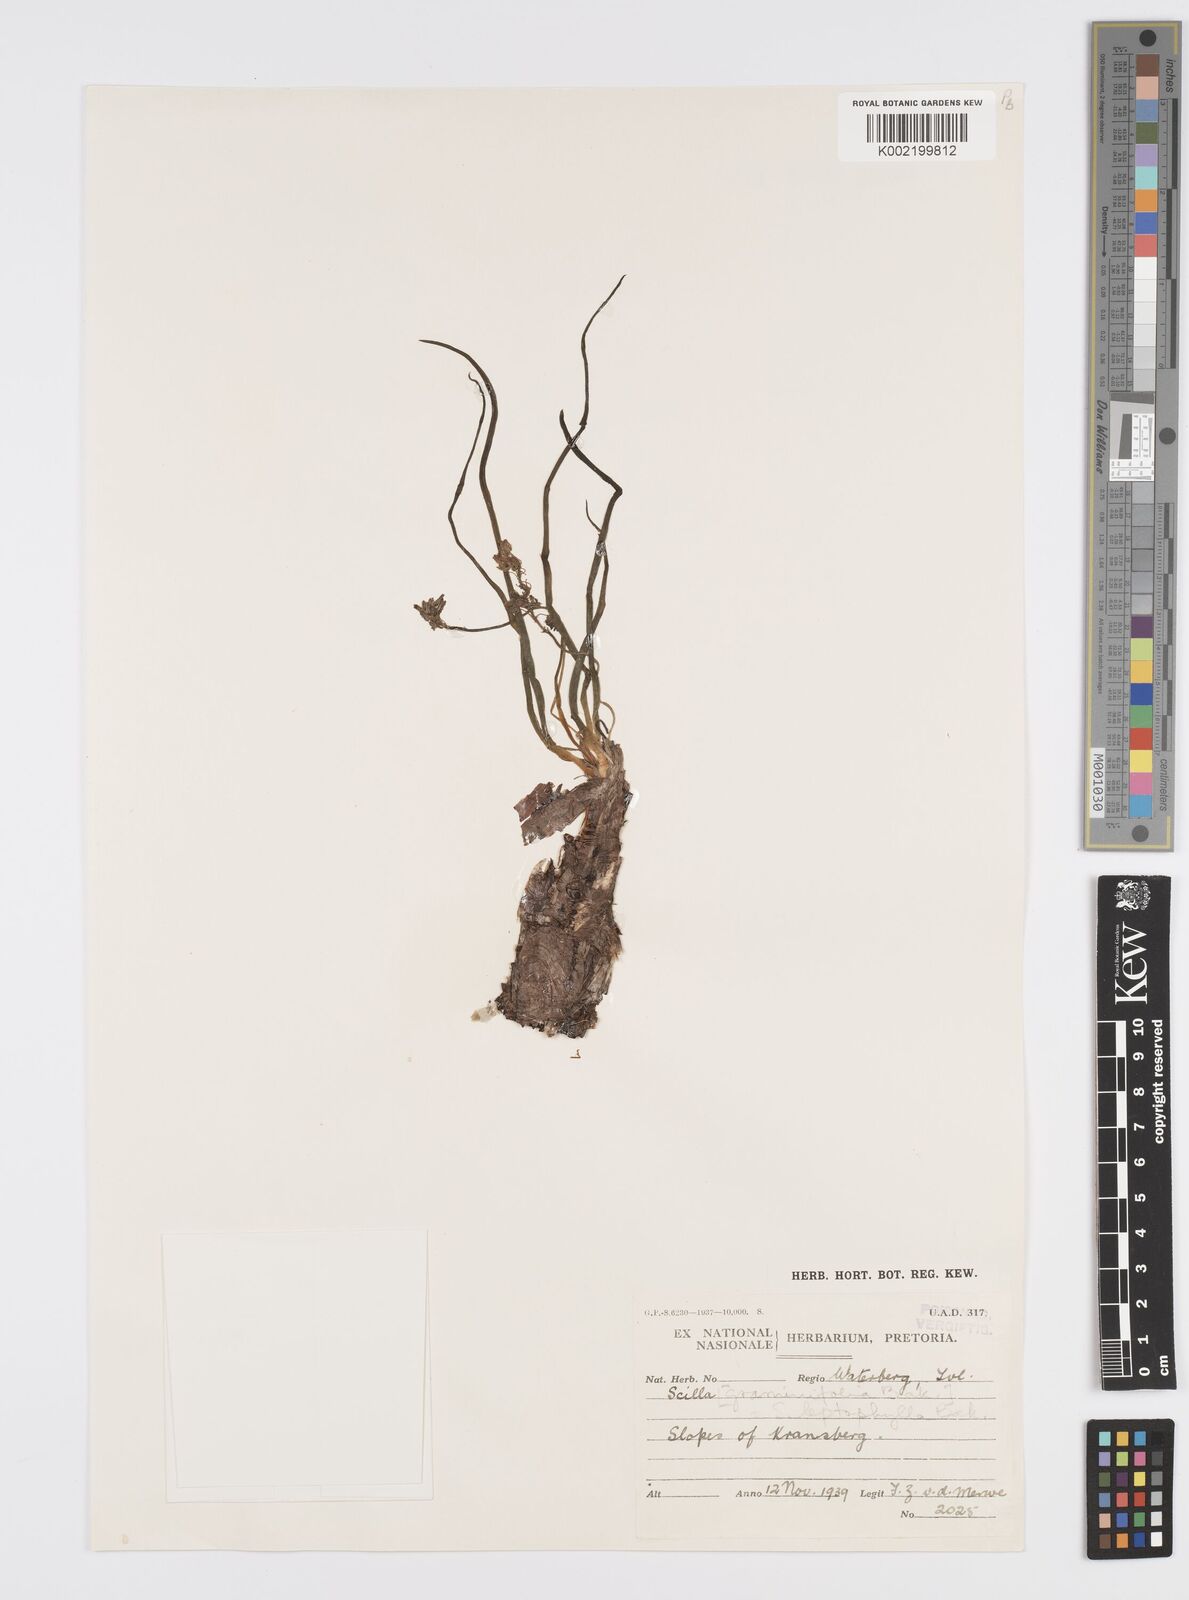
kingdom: Plantae
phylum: Tracheophyta
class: Liliopsida
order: Asparagales
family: Asparagaceae
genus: Ledebouria
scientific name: Ledebouria cooperi
